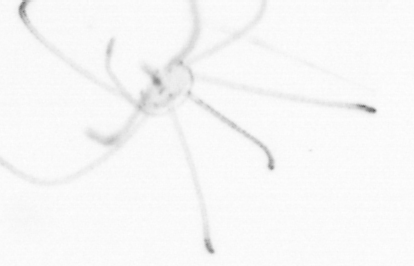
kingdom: Animalia
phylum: Cnidaria
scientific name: Cnidaria
